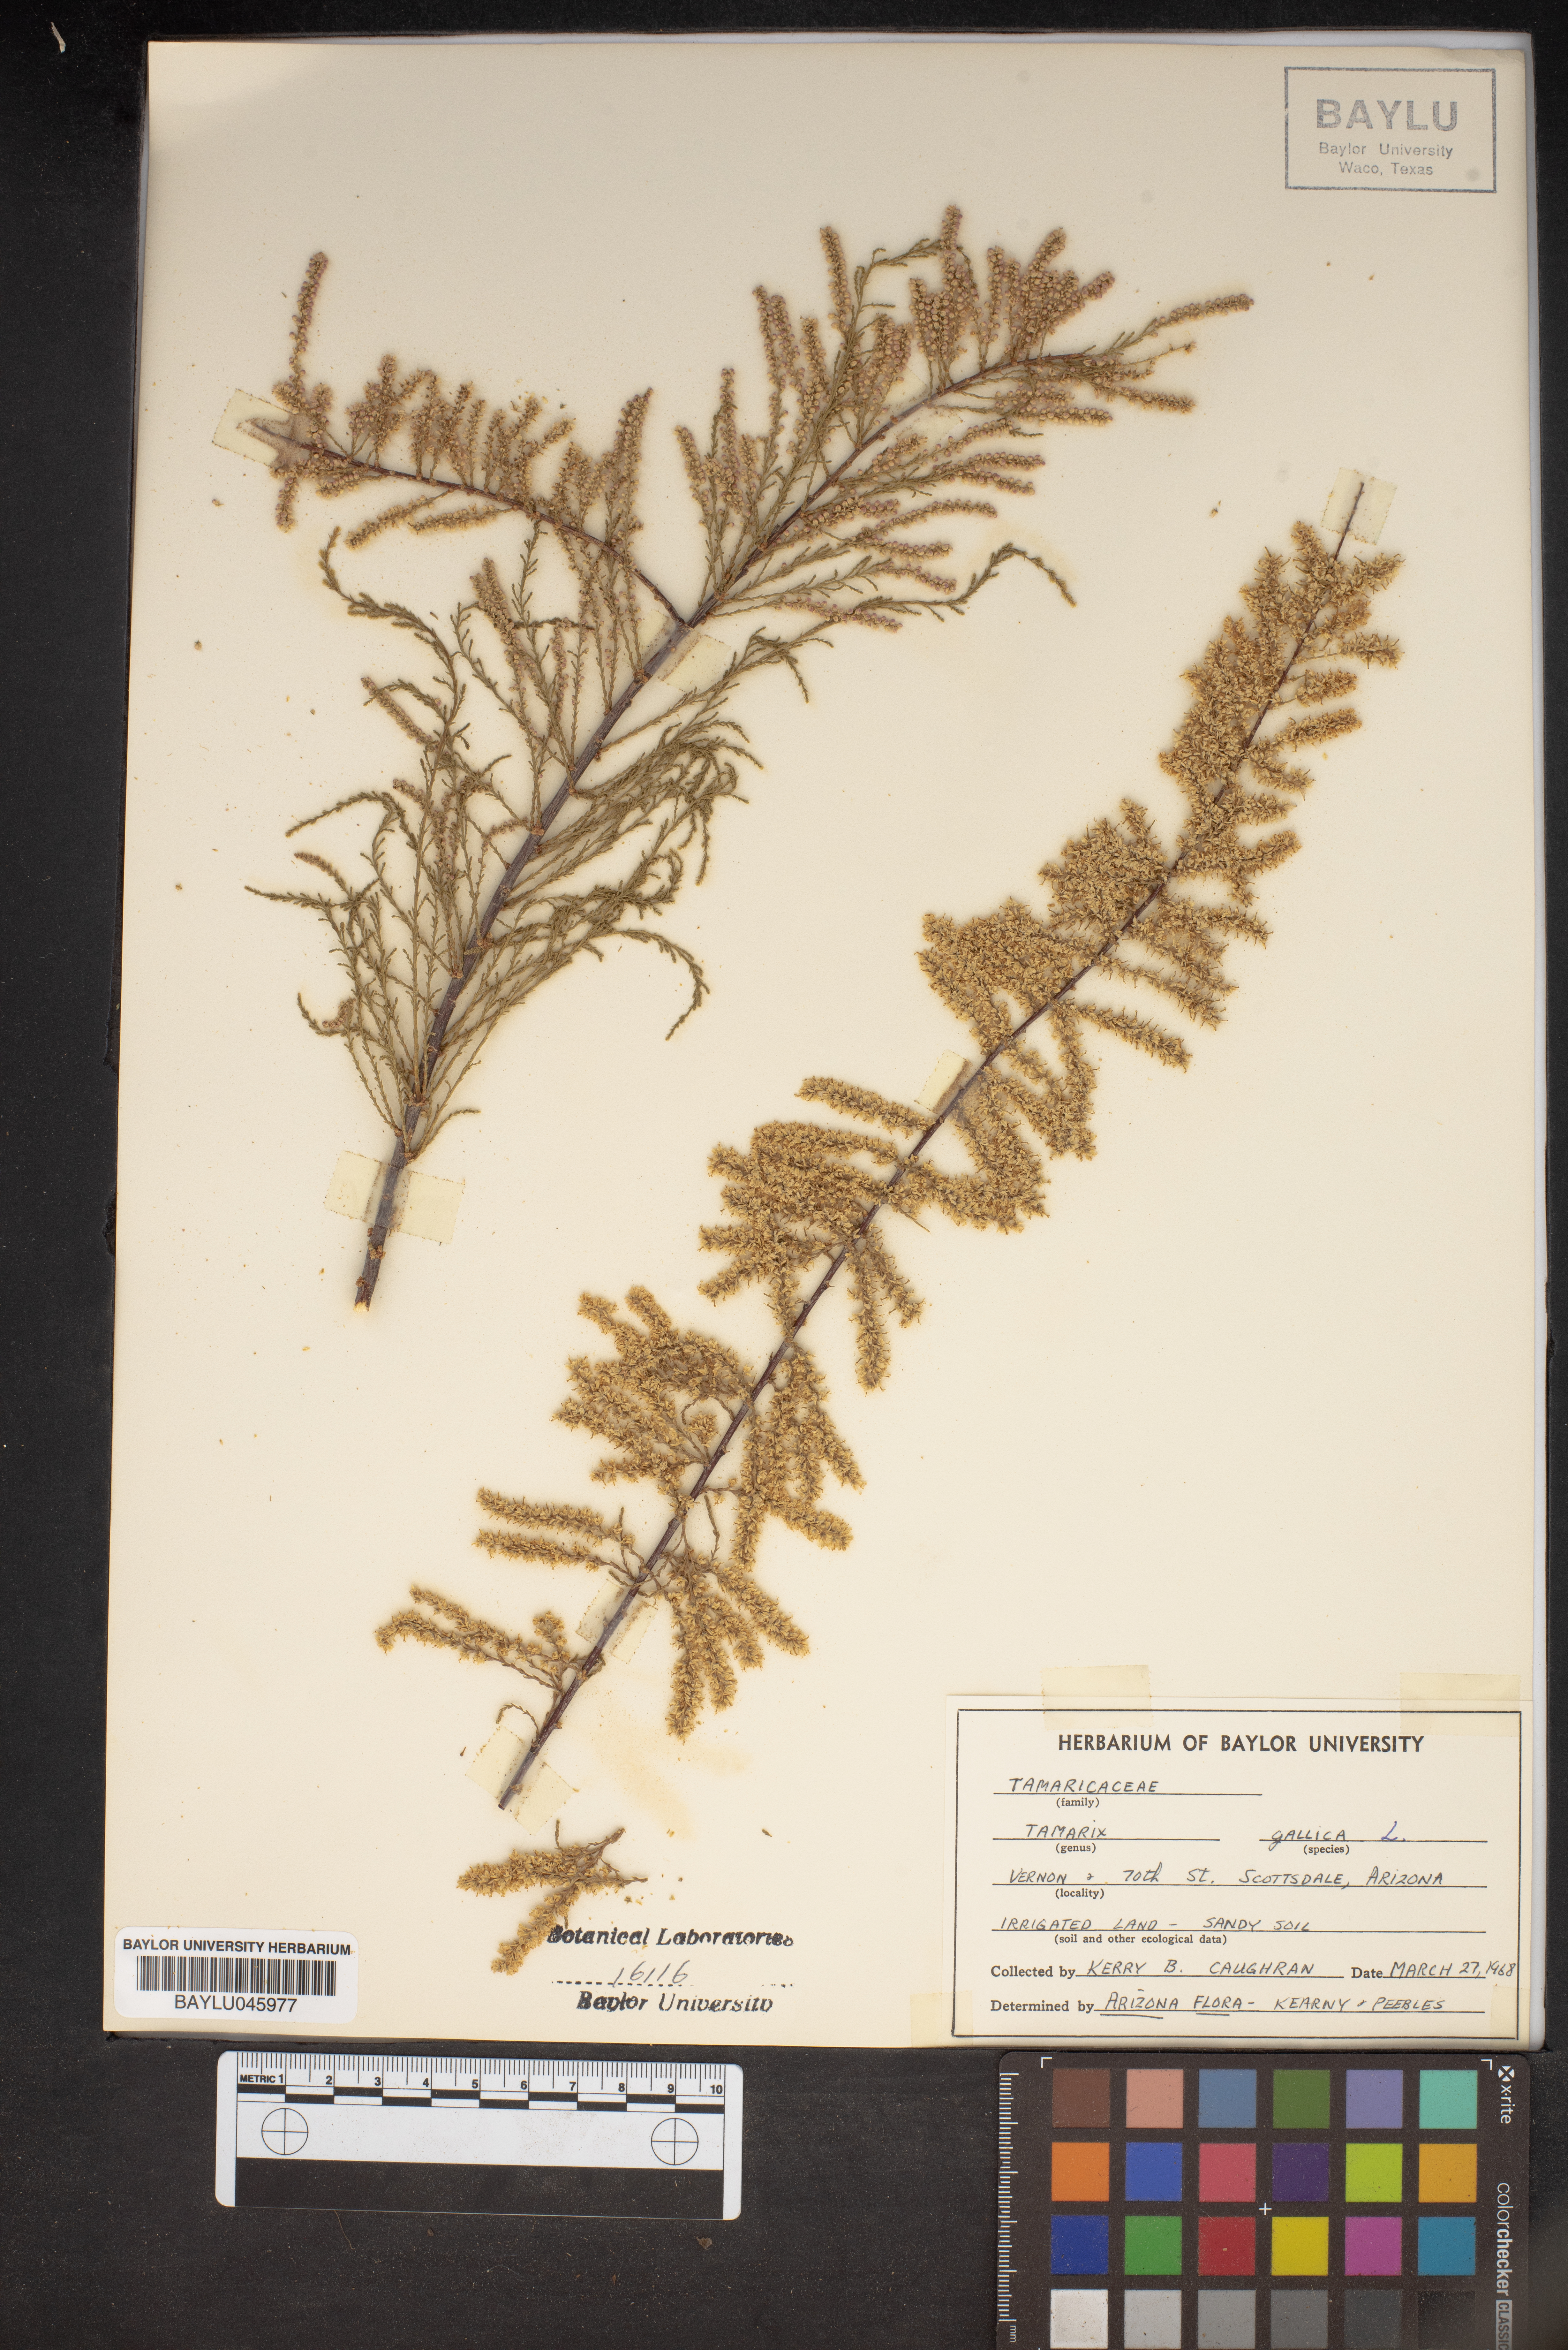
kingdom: Plantae
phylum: Tracheophyta
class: Magnoliopsida
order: Caryophyllales
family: Tamaricaceae
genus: Tamarix
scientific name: Tamarix gallica
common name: Tamarisk
